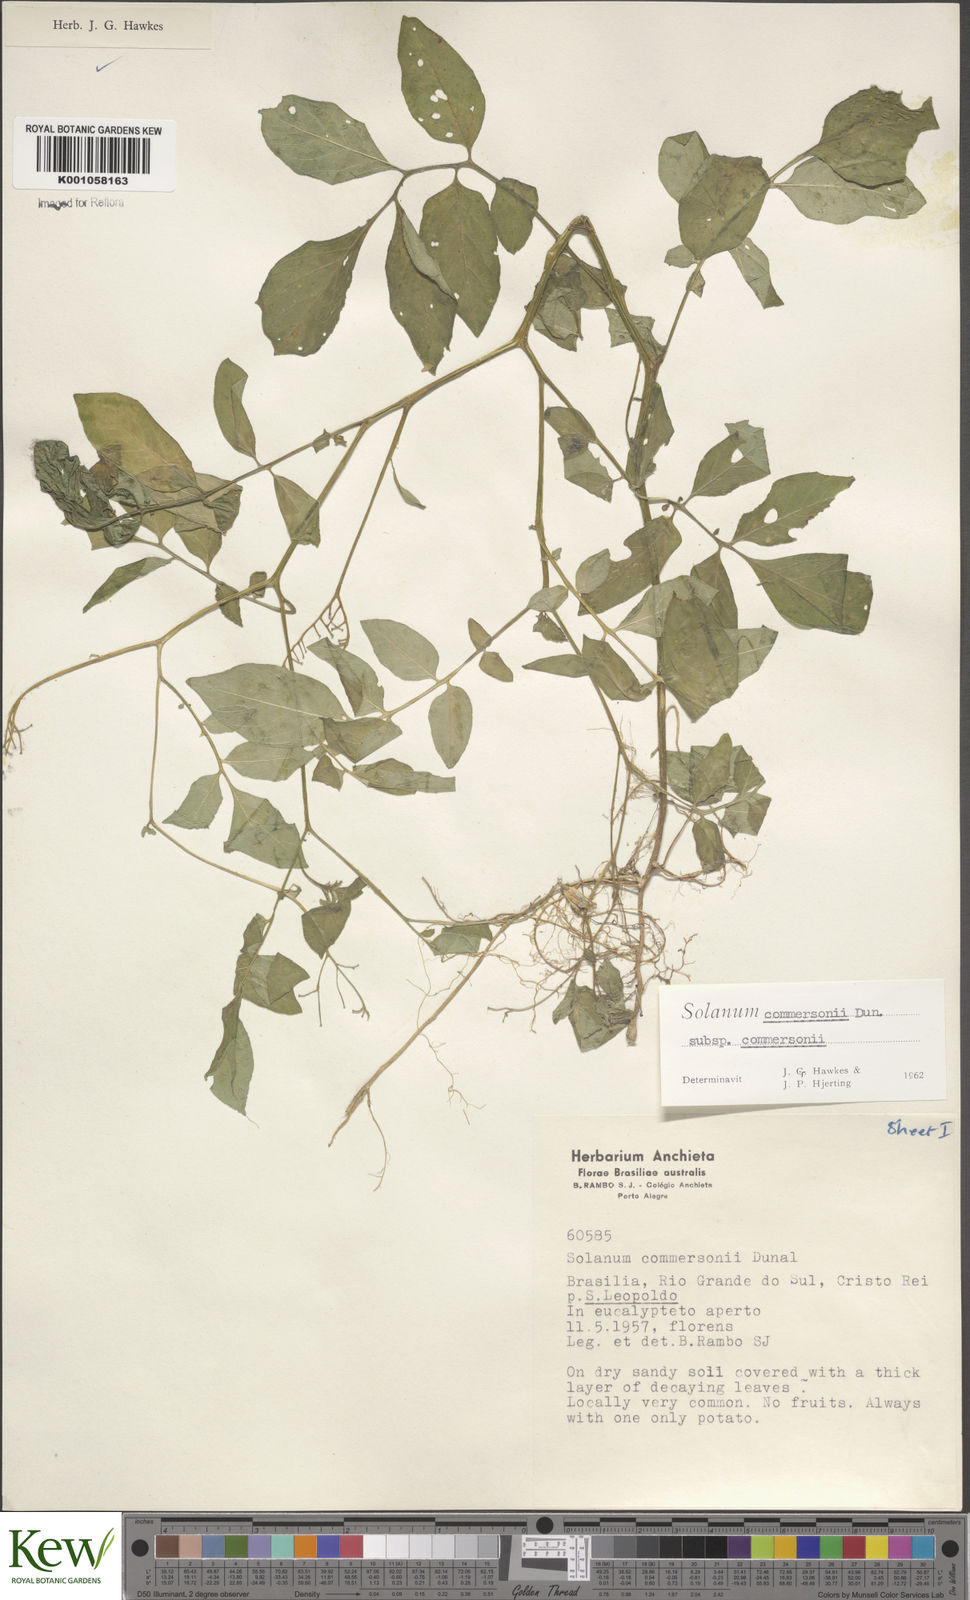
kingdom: Plantae
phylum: Tracheophyta
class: Magnoliopsida
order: Solanales
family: Solanaceae
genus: Solanum
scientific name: Solanum commersonii
